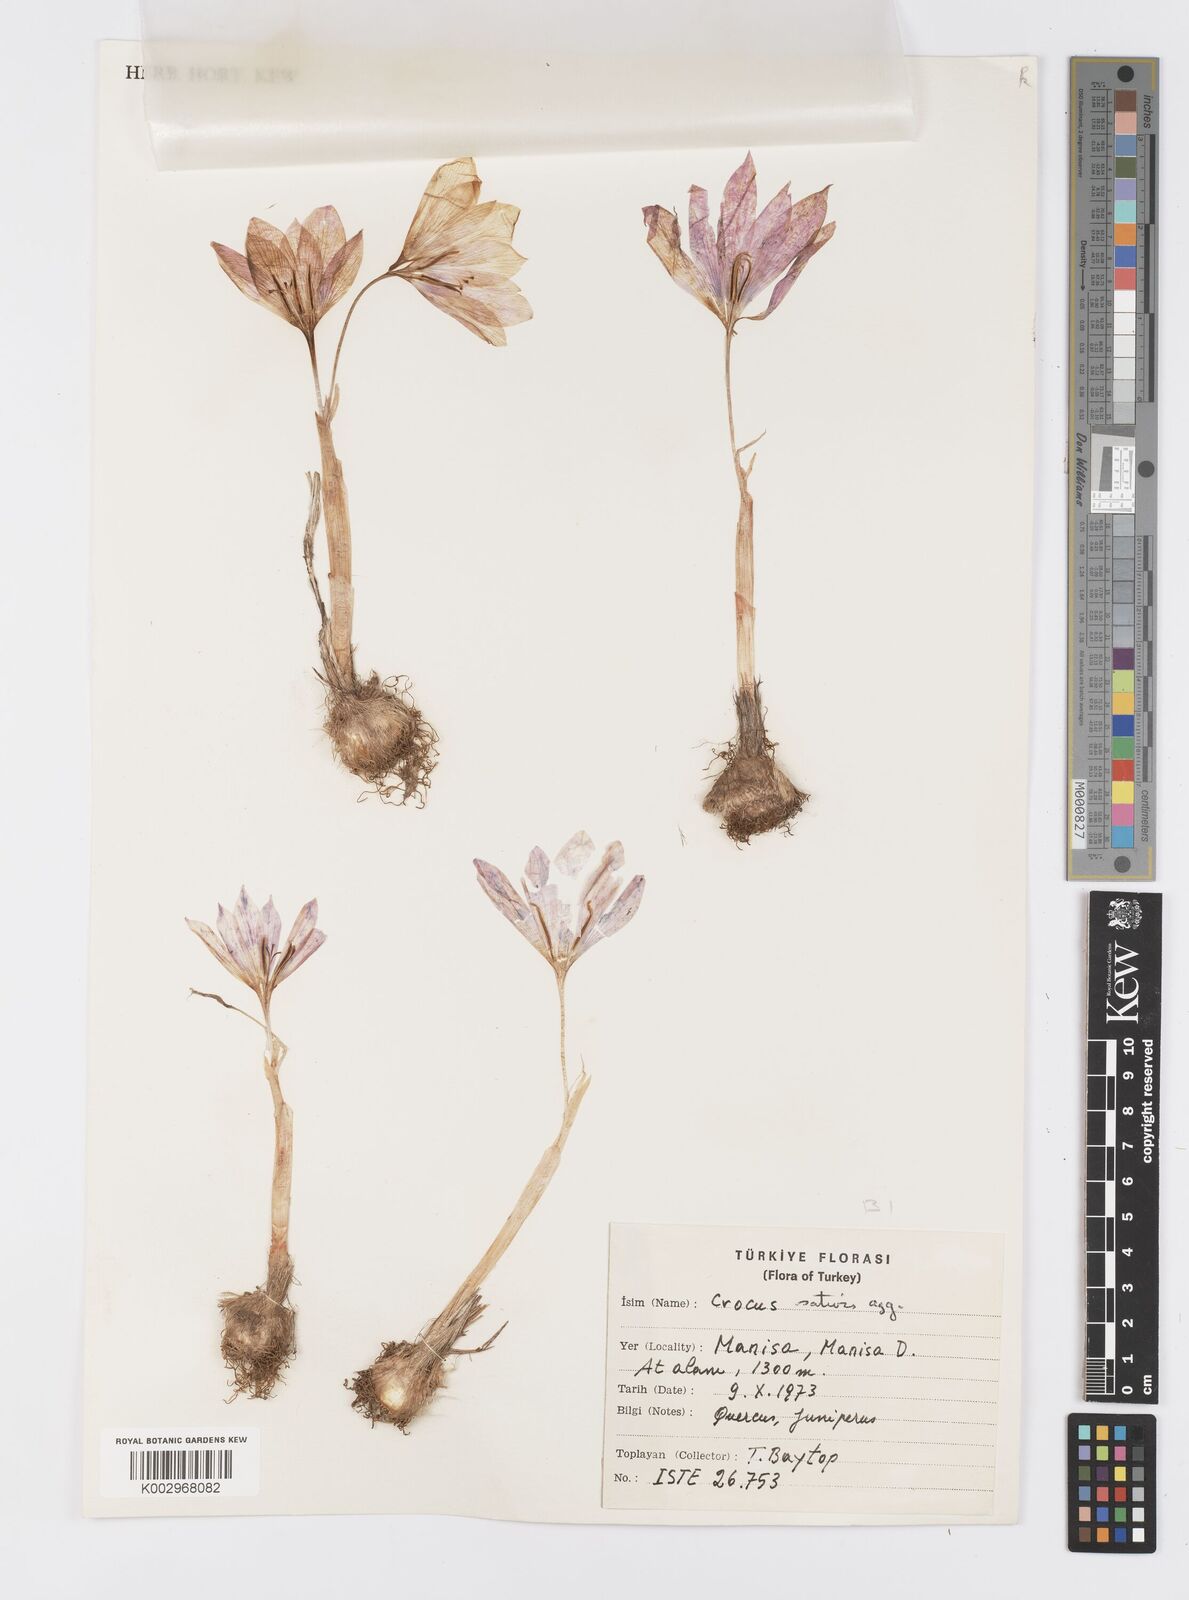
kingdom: Plantae
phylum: Tracheophyta
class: Liliopsida
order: Asparagales
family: Iridaceae
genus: Crocus
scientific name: Crocus
